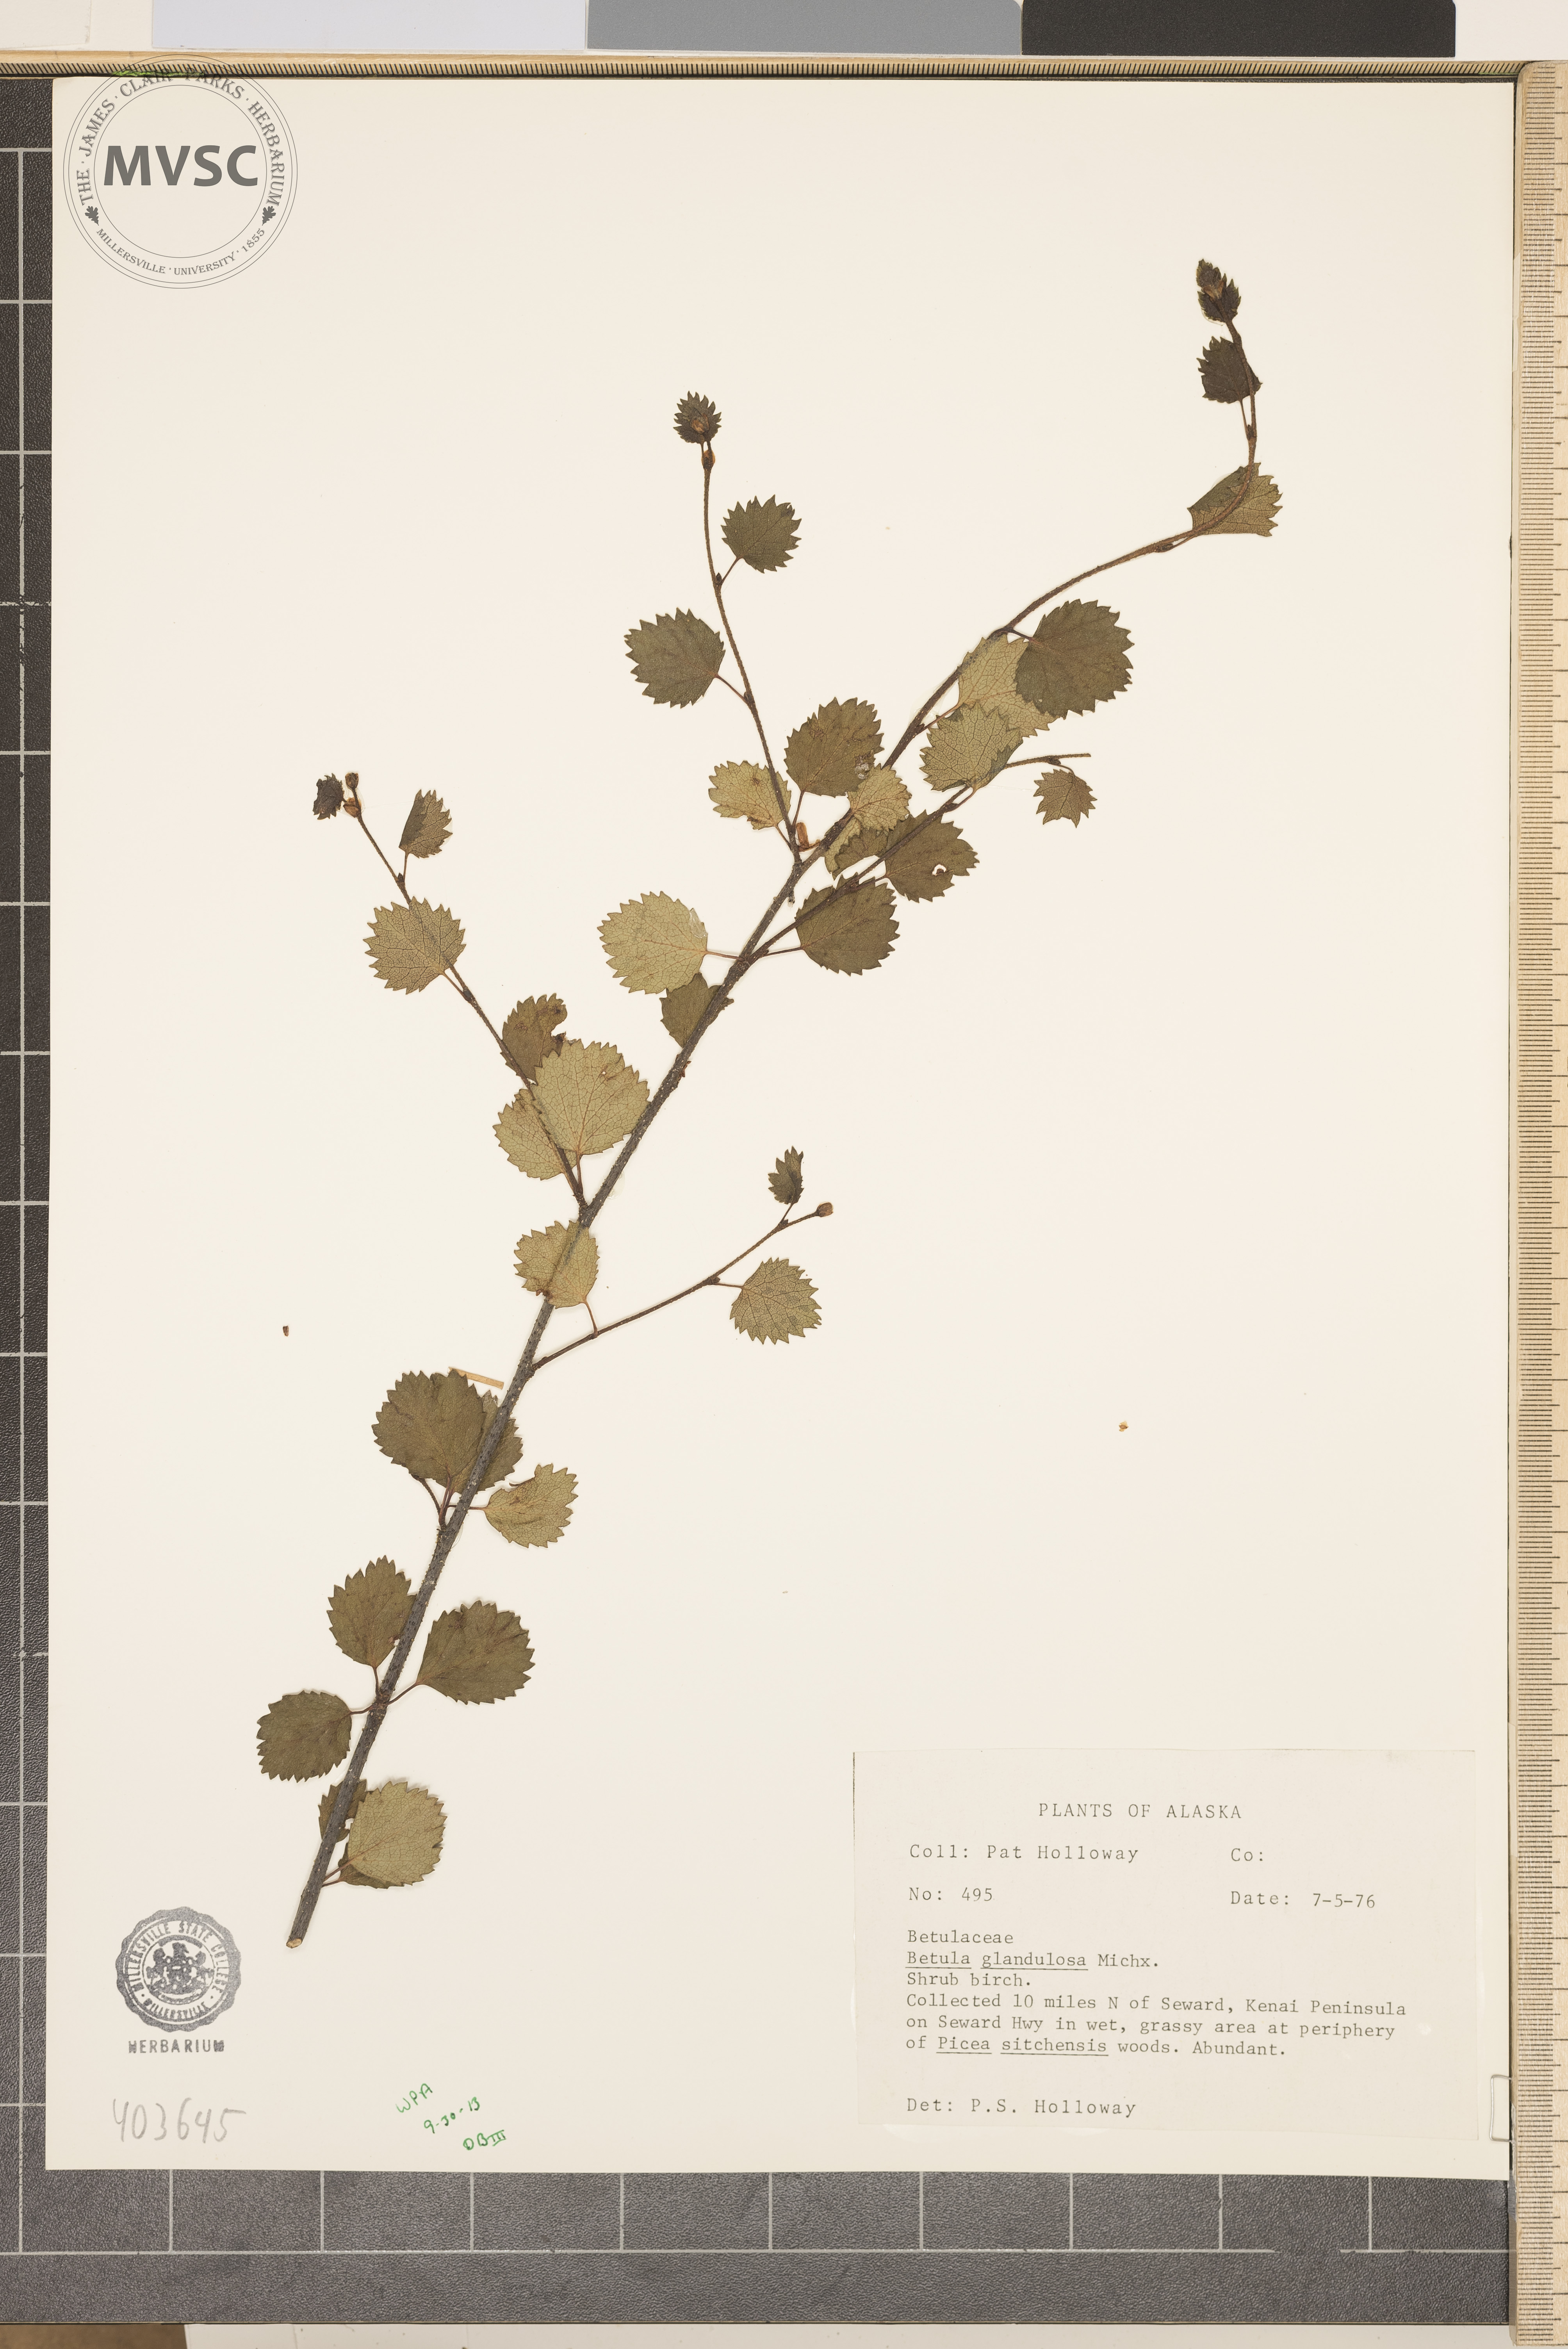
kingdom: Plantae
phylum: Tracheophyta
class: Magnoliopsida
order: Fagales
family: Betulaceae
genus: Betula
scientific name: Betula glandulosa
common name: Shrub Birch
